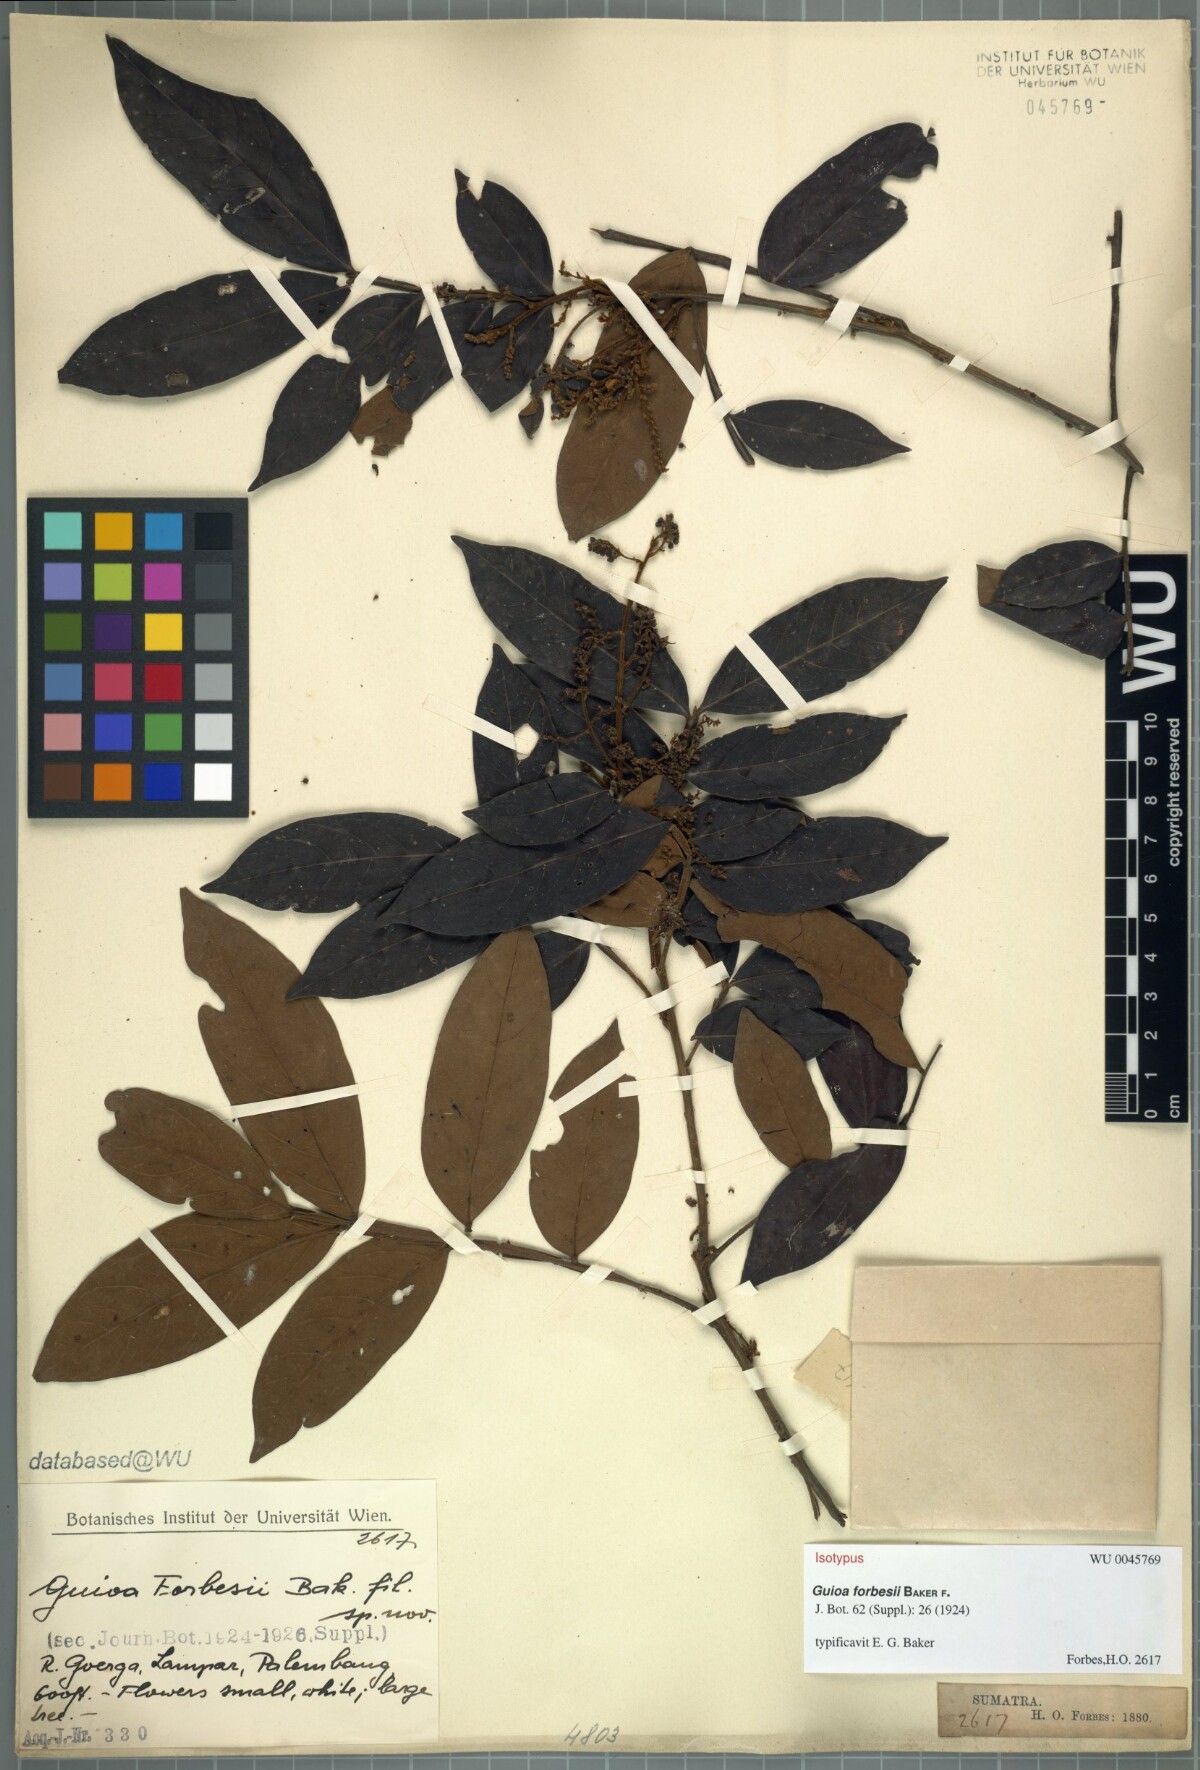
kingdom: Plantae
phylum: Tracheophyta
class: Magnoliopsida
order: Sapindales
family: Sapindaceae
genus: Guioa
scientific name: Guioa pleuropteris
